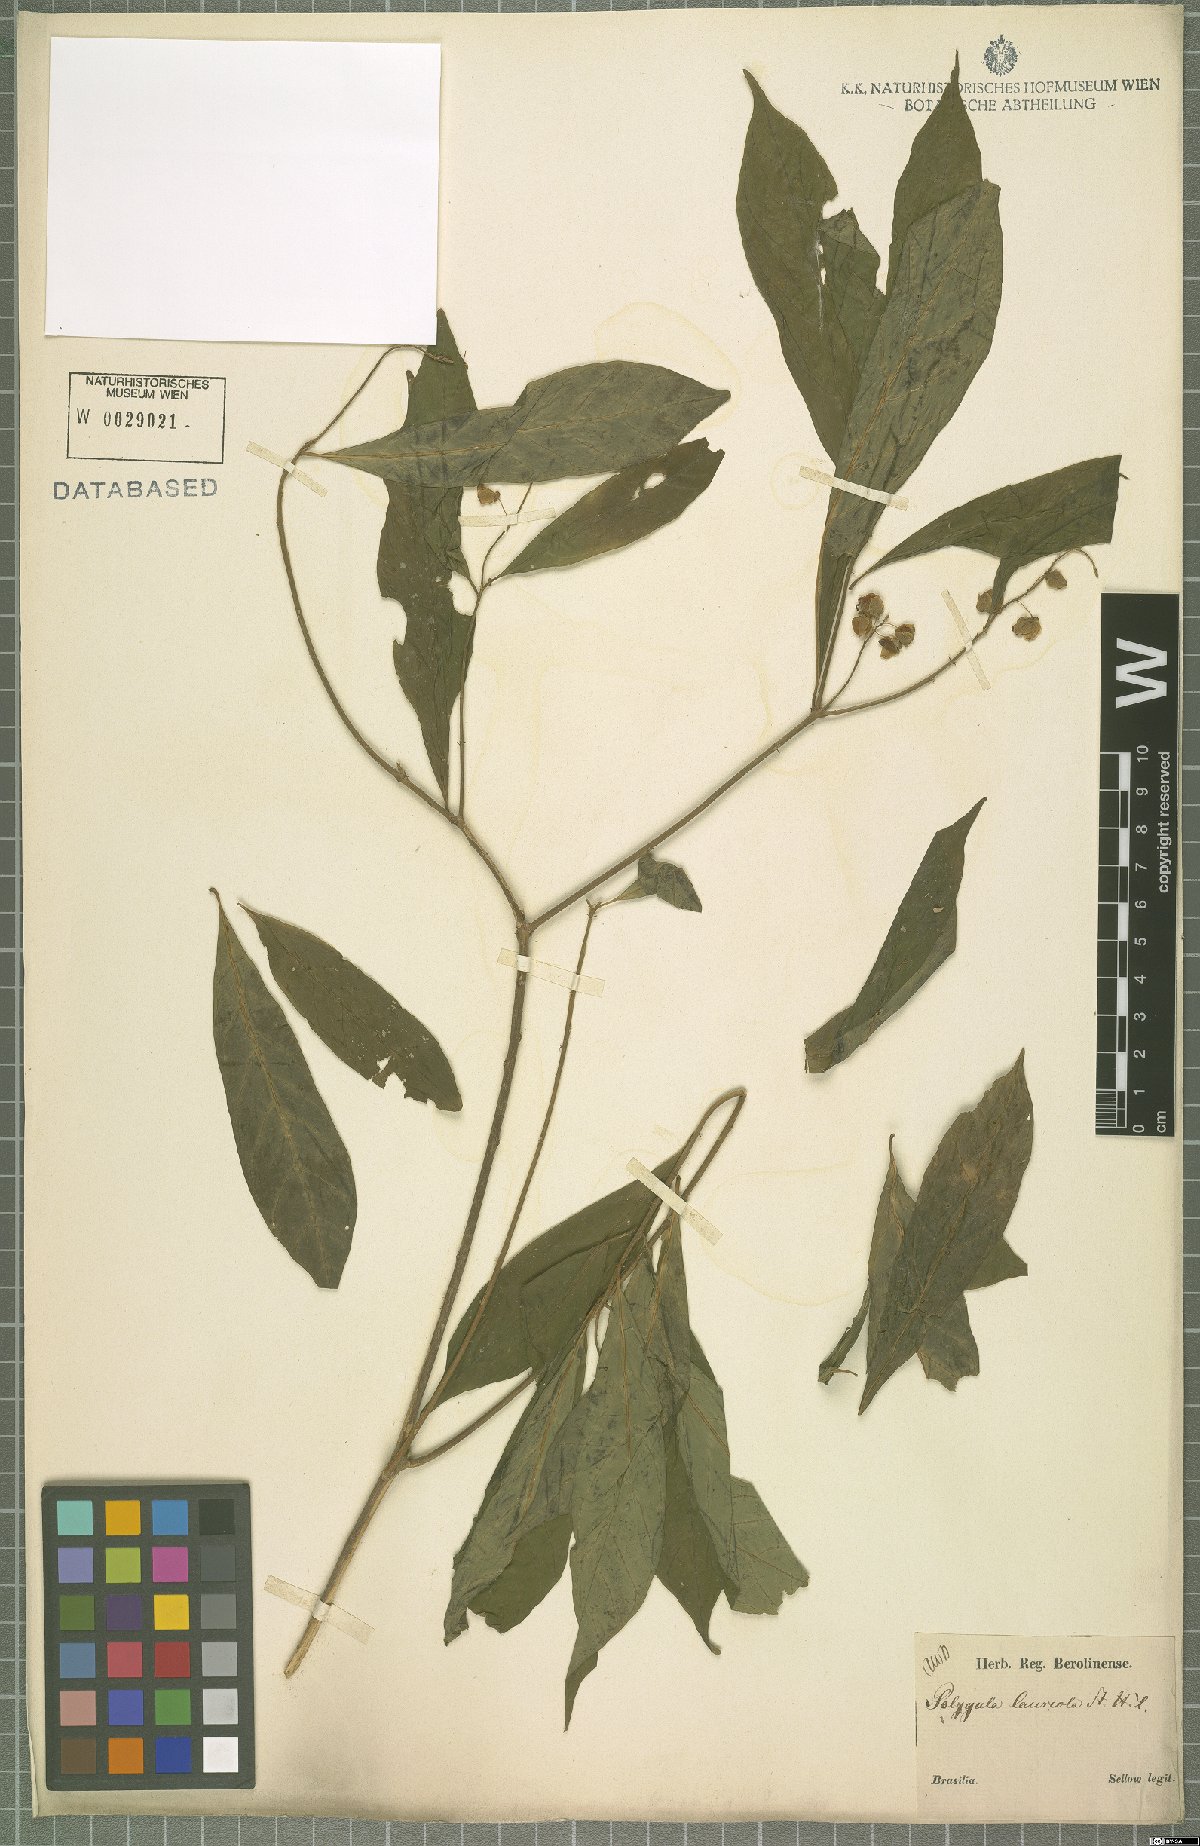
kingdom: Plantae
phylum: Tracheophyta
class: Magnoliopsida
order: Fabales
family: Polygalaceae
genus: Caamembeca
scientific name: Caamembeca salicifolia
